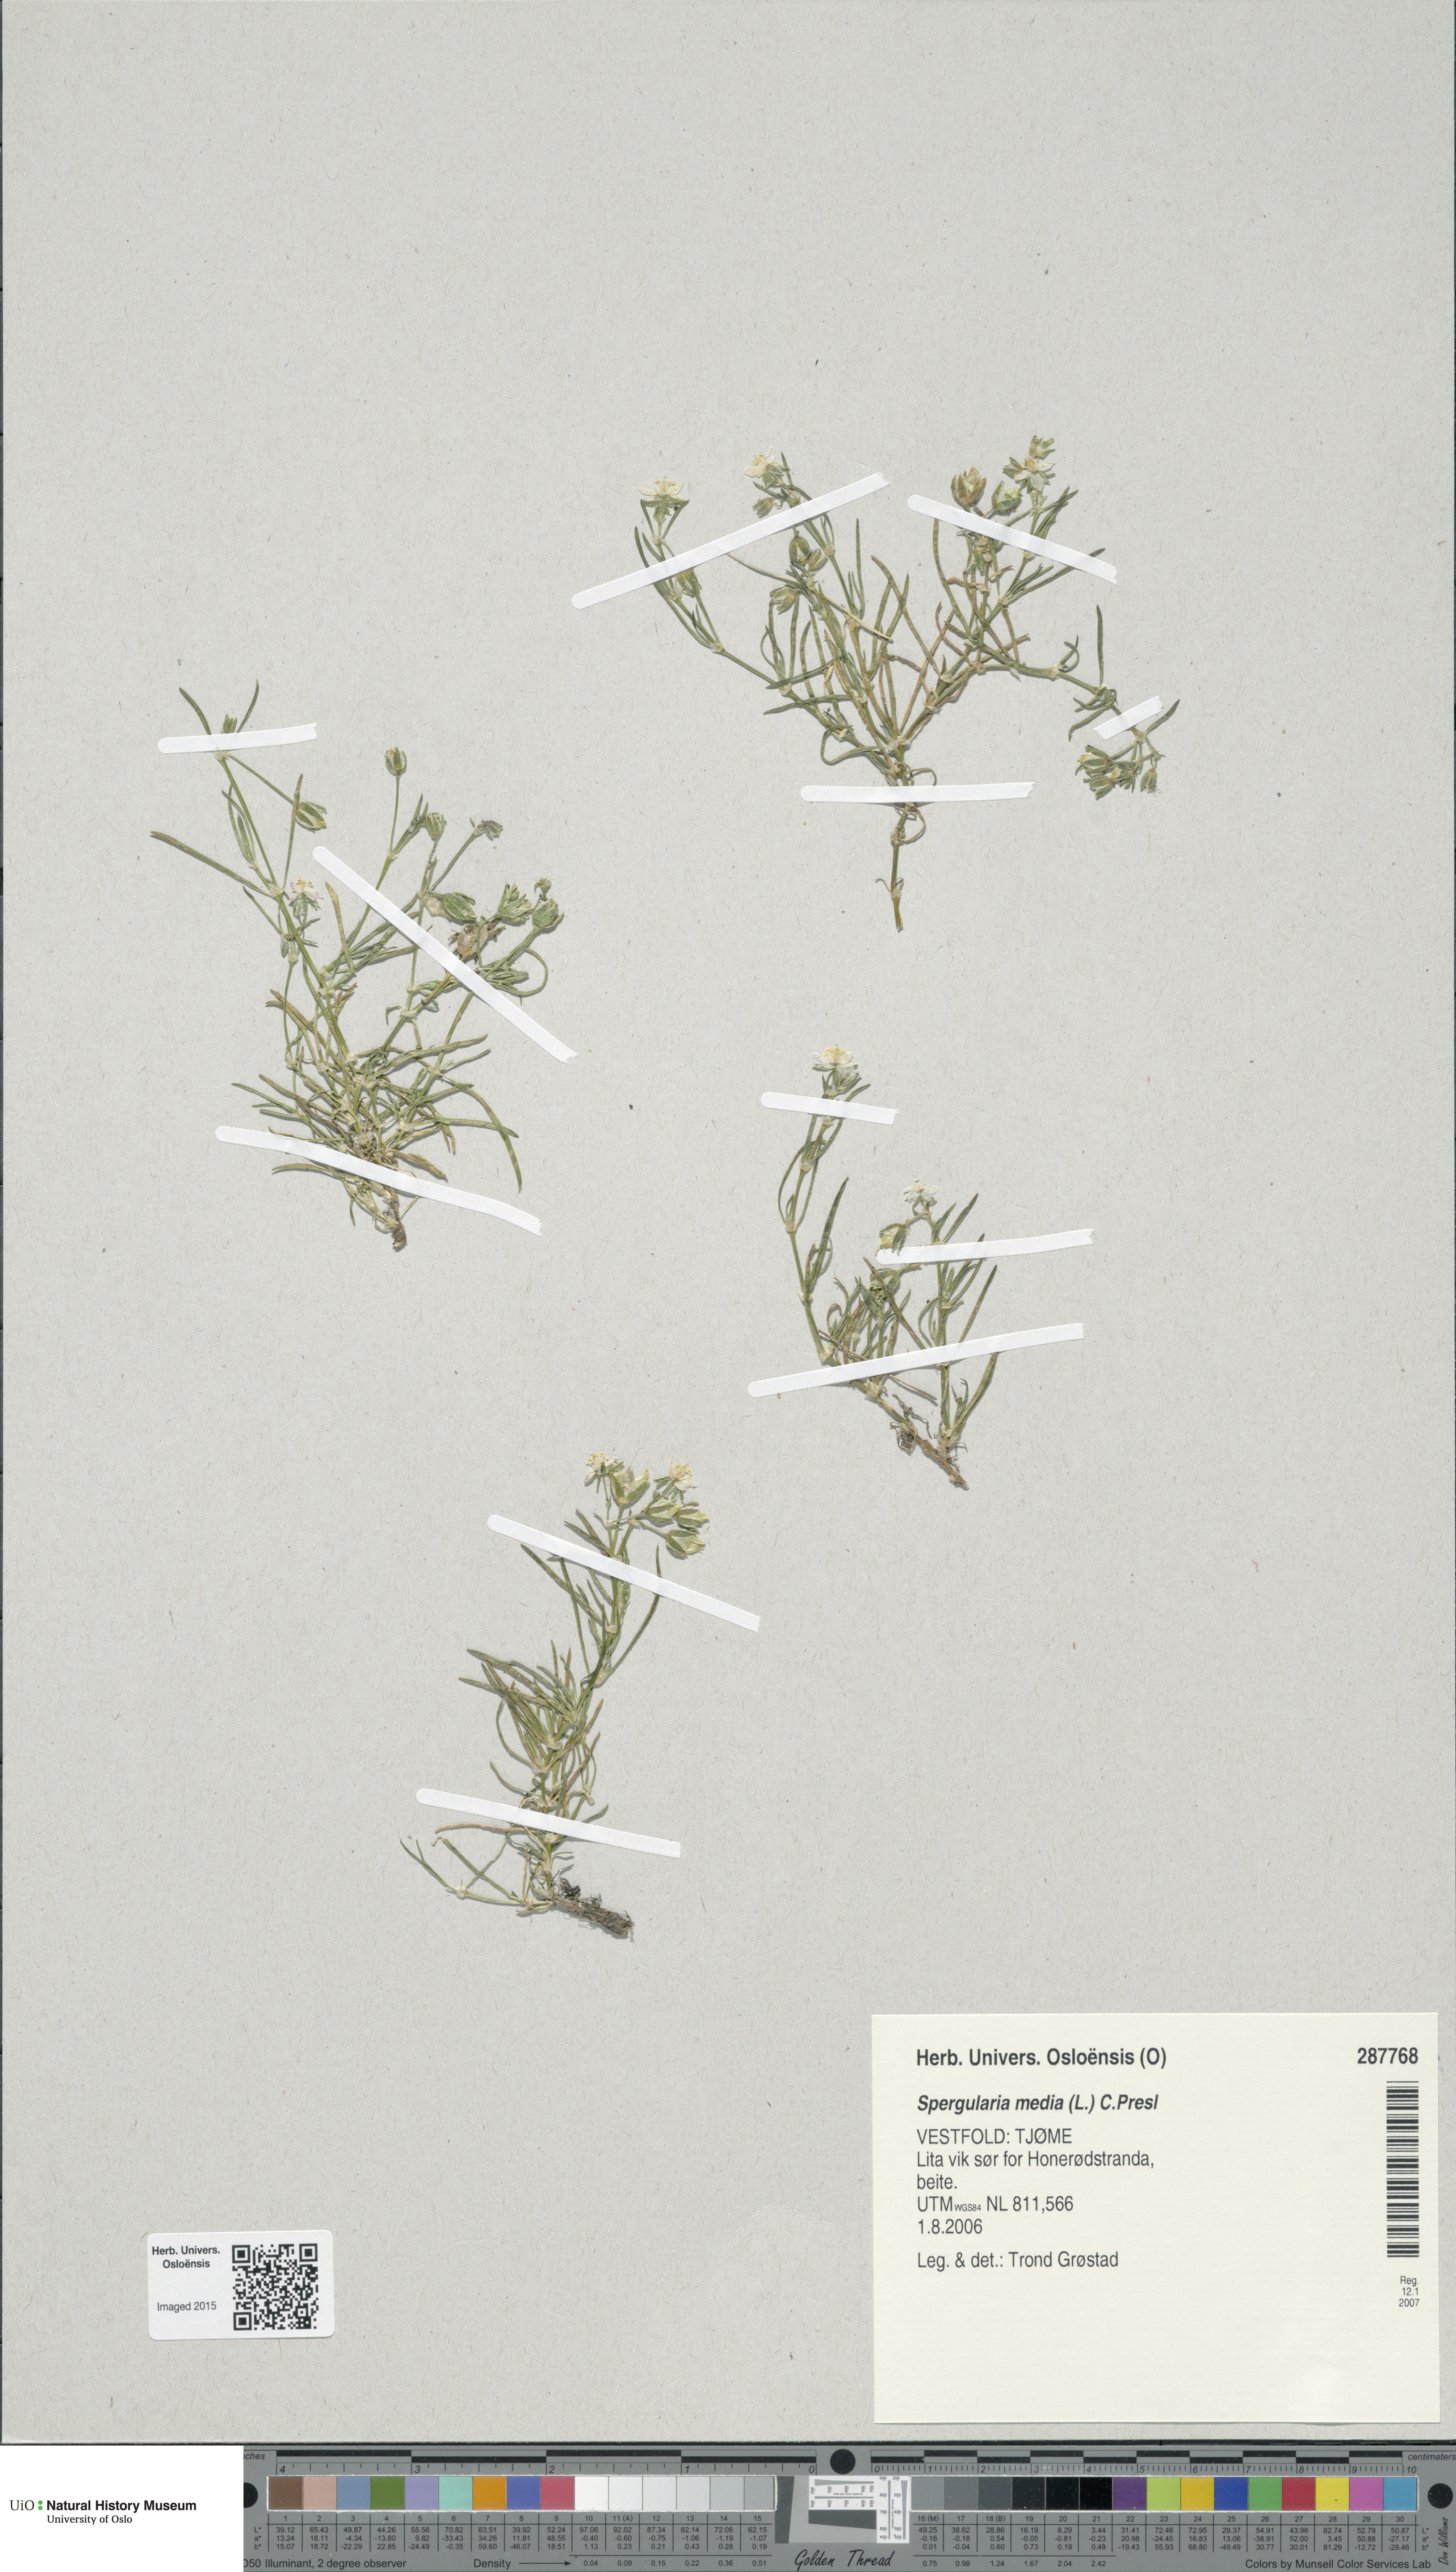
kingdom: Plantae
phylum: Tracheophyta
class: Magnoliopsida
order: Caryophyllales
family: Caryophyllaceae
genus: Spergularia
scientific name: Spergularia media
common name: Greater sea-spurrey
